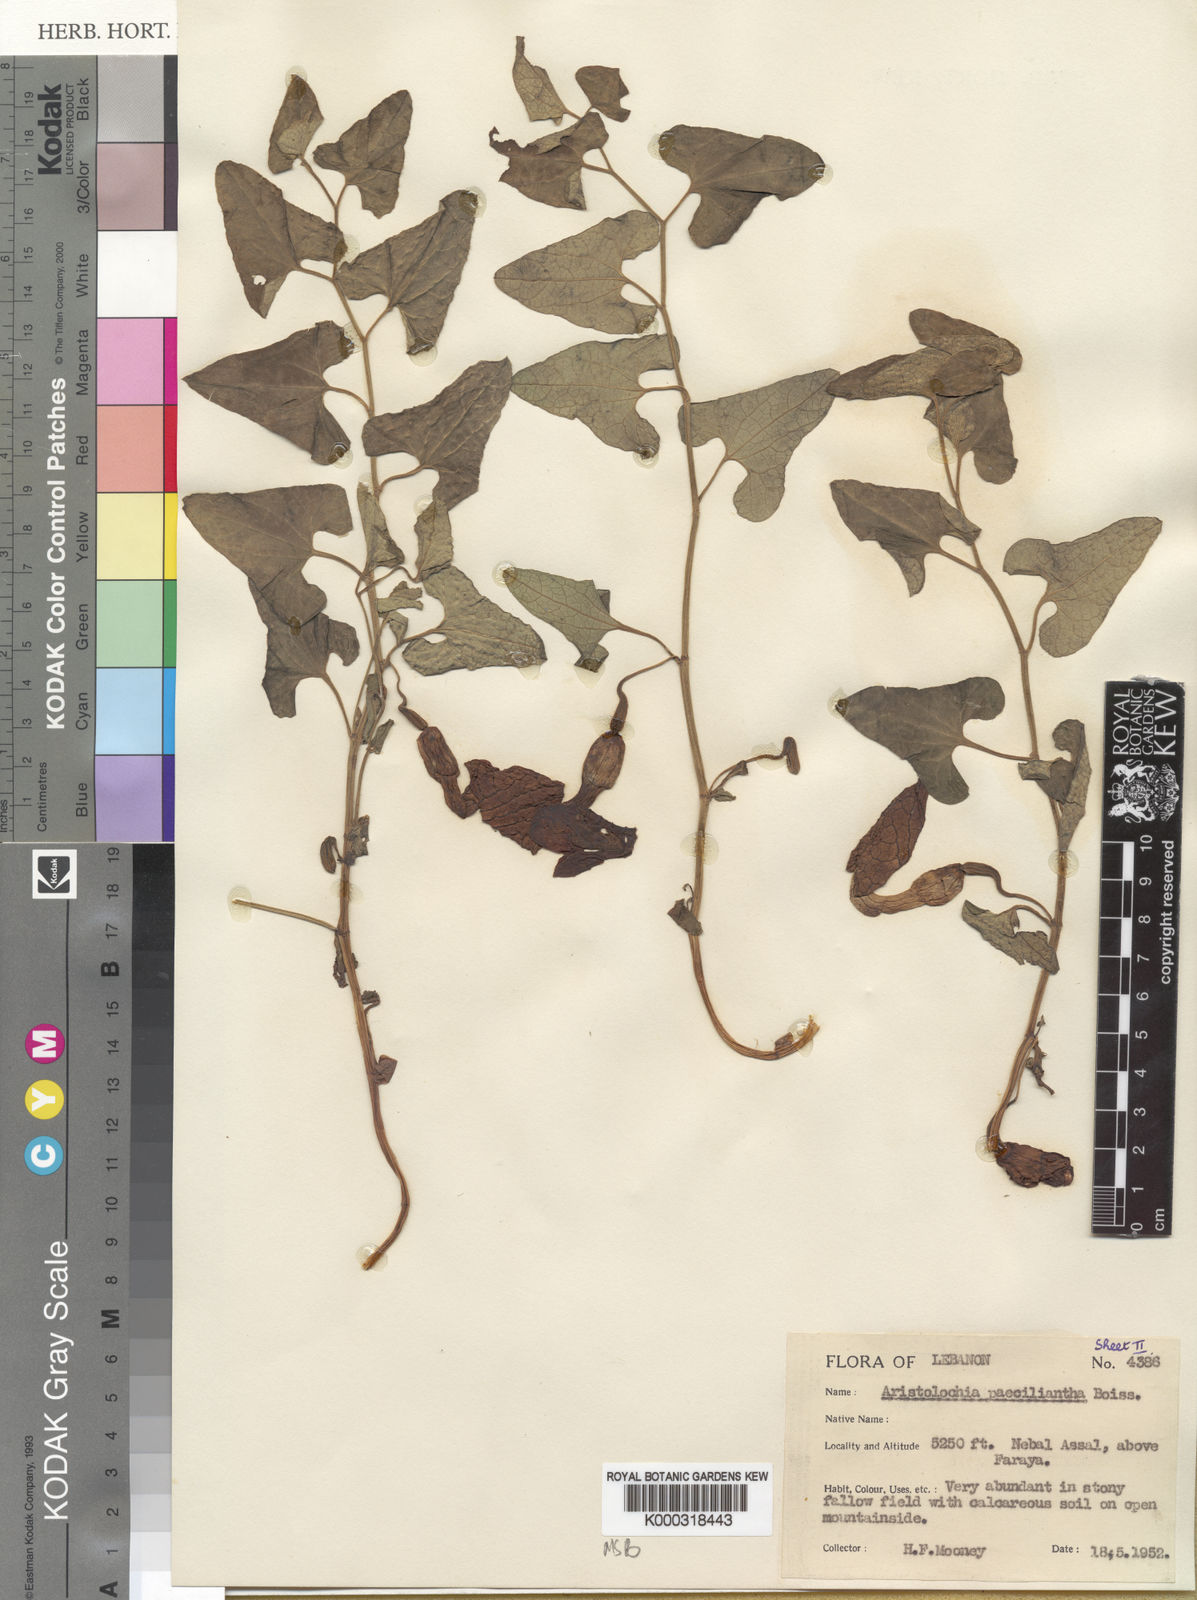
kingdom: Plantae
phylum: Tracheophyta
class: Magnoliopsida
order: Piperales
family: Aristolochiaceae
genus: Aristolochia
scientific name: Aristolochia paecilantha
